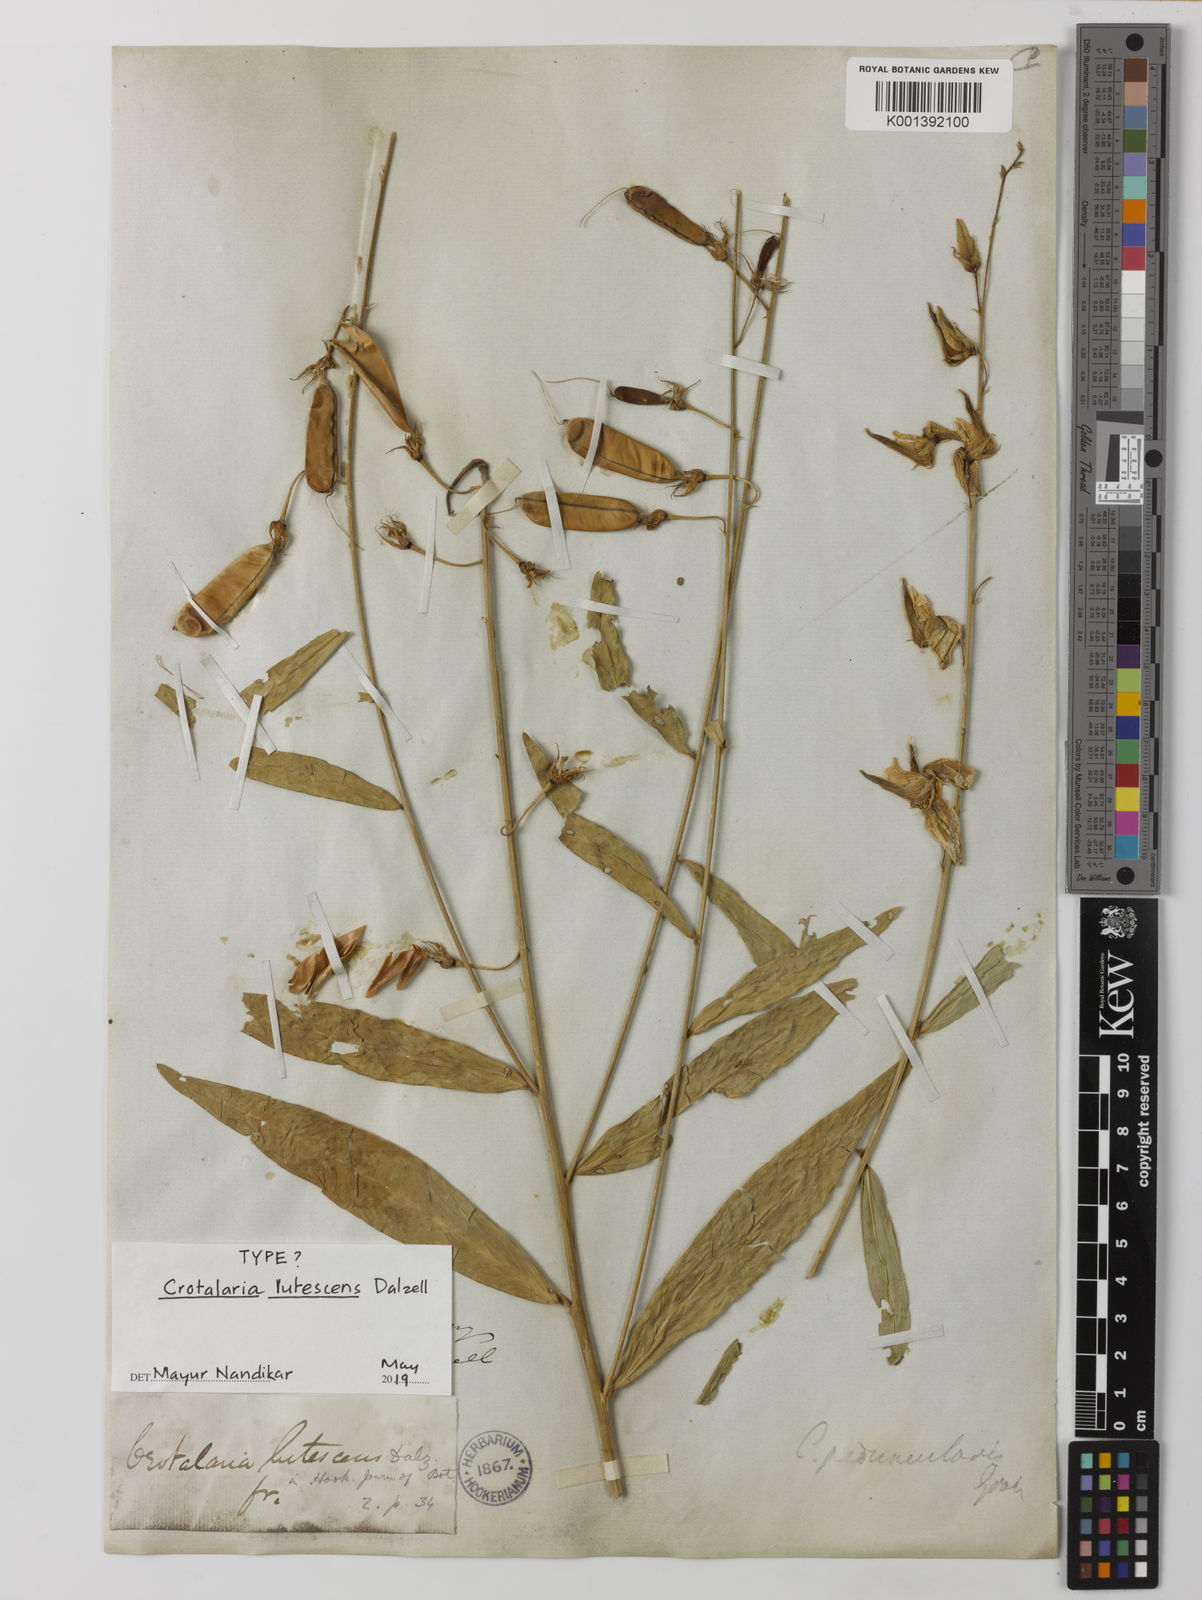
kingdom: Plantae
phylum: Tracheophyta
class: Magnoliopsida
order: Fabales
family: Fabaceae
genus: Crotalaria
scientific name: Crotalaria lutescens
